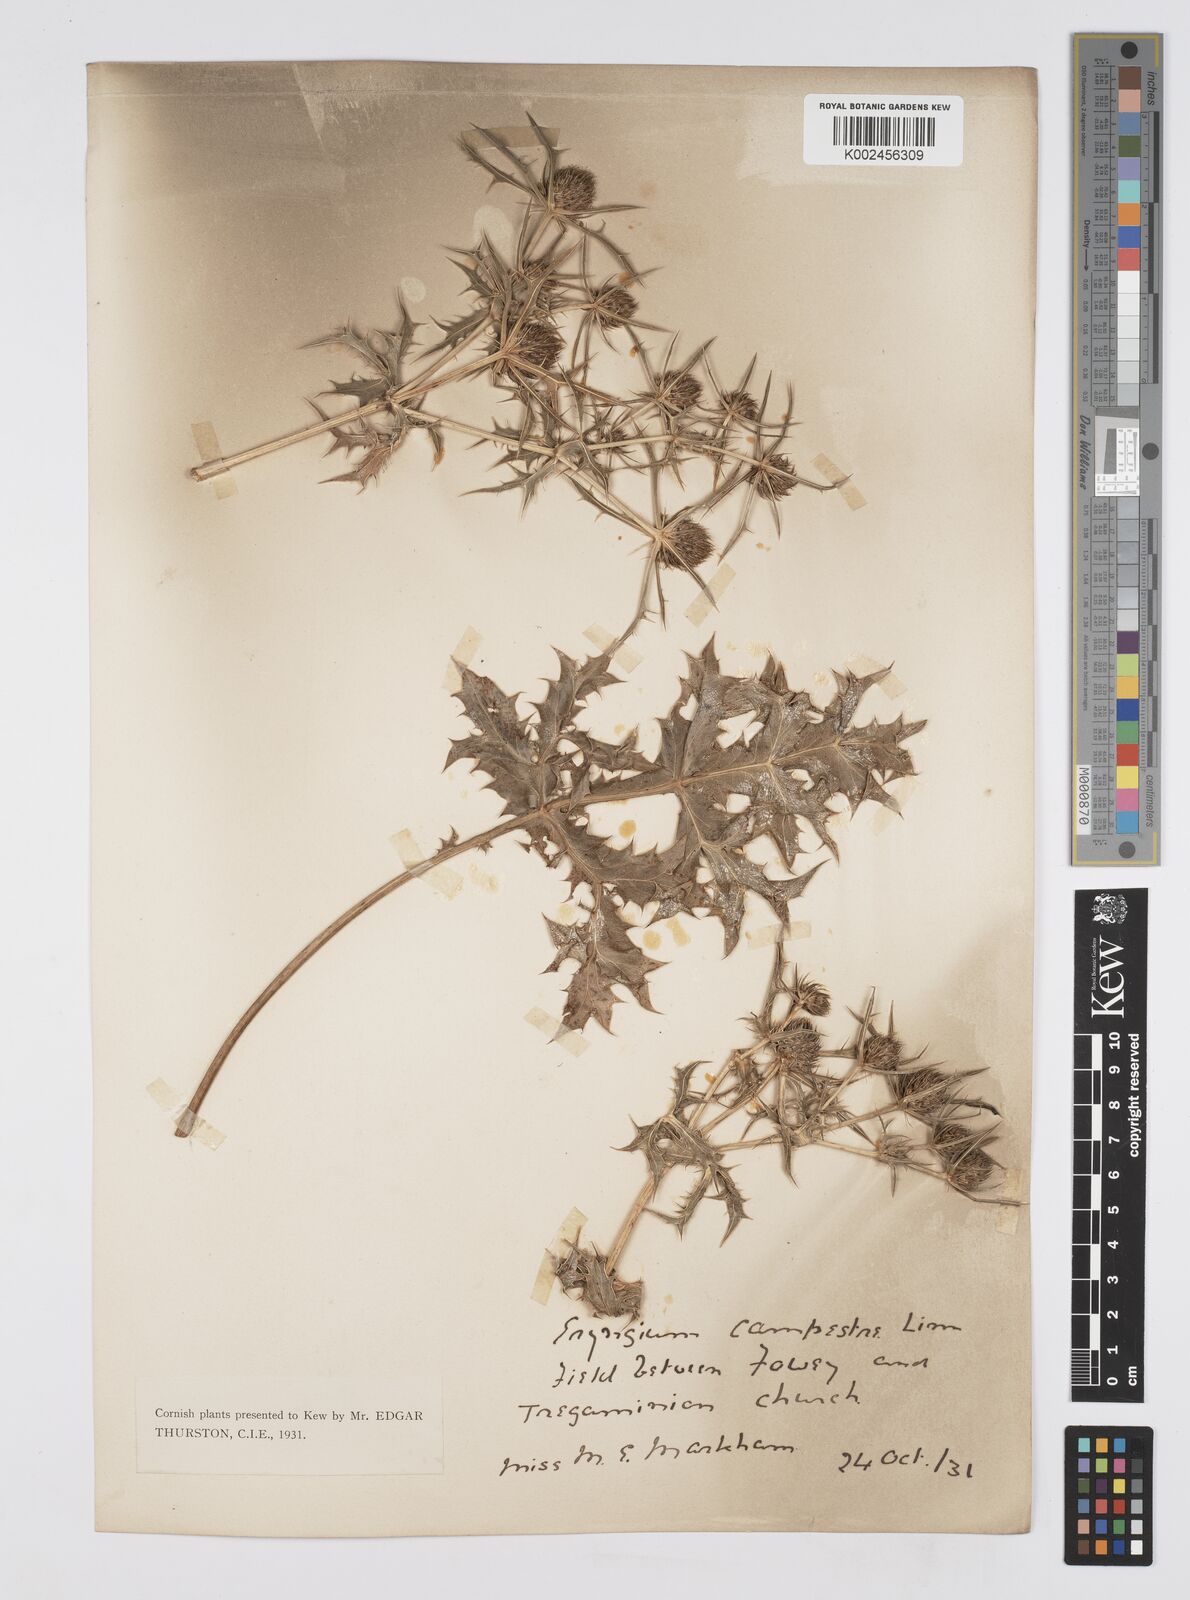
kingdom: Plantae
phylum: Tracheophyta
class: Magnoliopsida
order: Apiales
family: Apiaceae
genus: Eryngium
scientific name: Eryngium campestre
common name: Field eryngo
